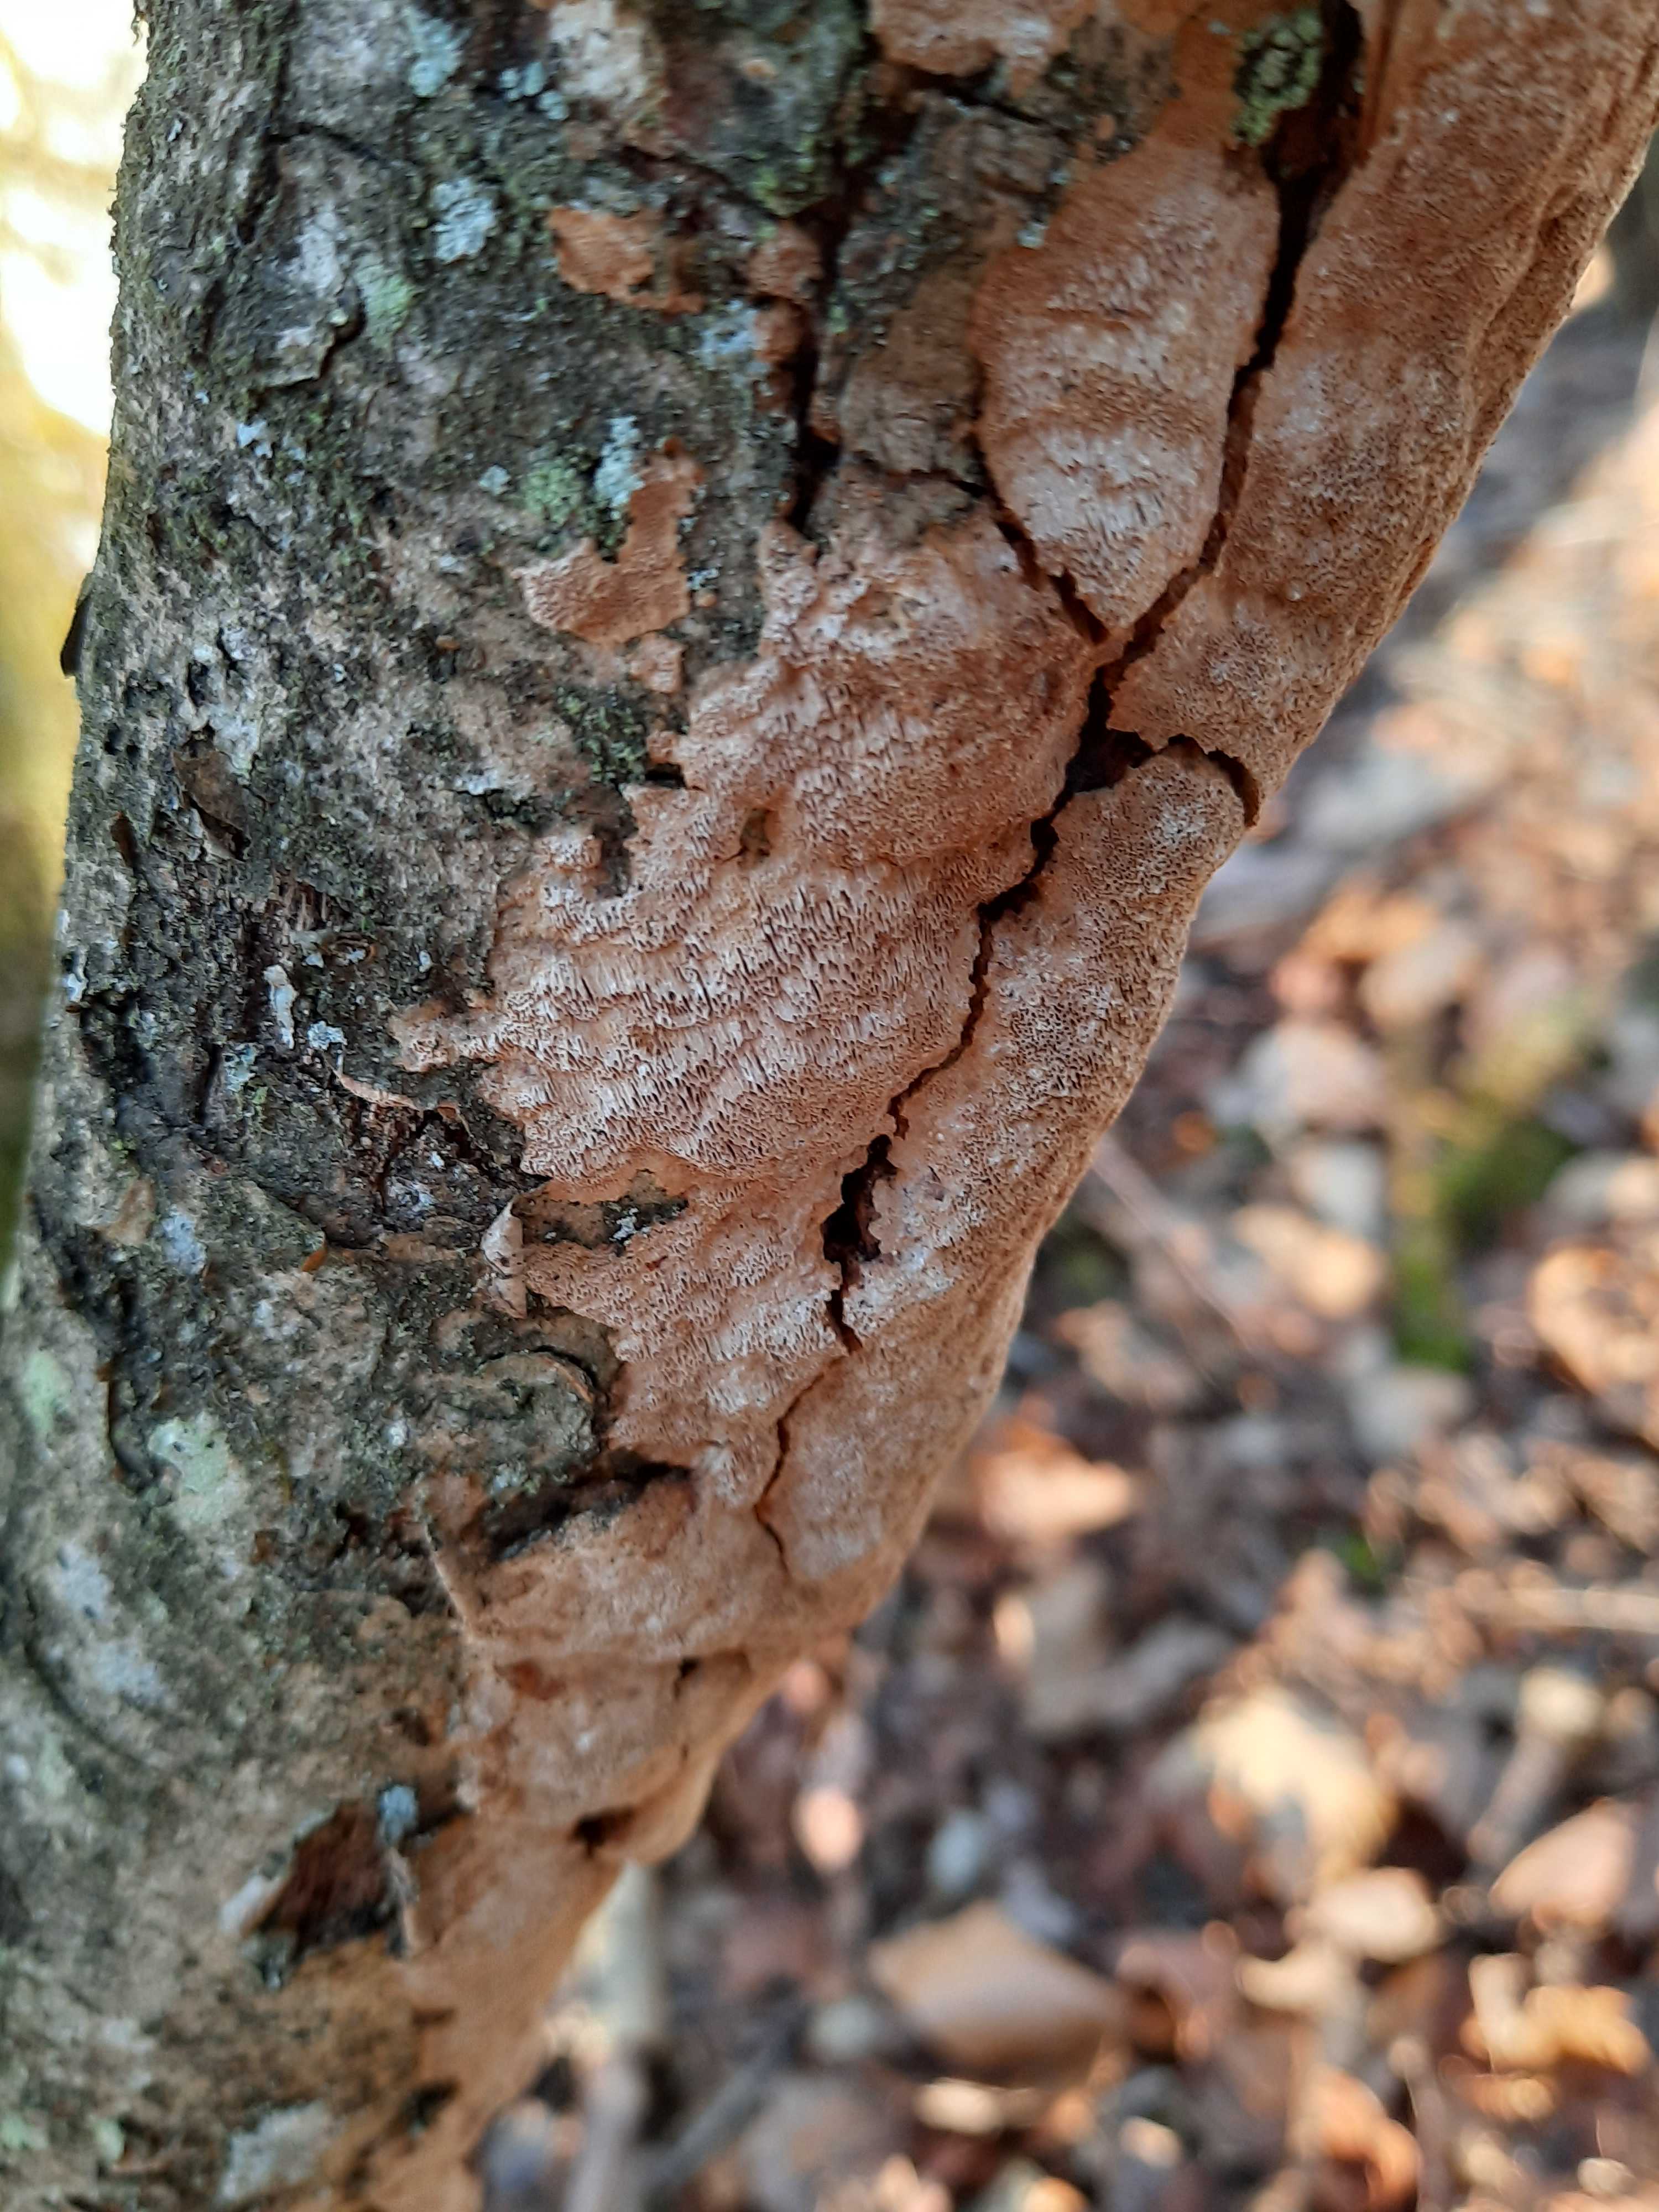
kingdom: Fungi
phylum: Basidiomycota
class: Agaricomycetes
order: Hymenochaetales
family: Hymenochaetaceae
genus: Fuscoporia
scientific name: Fuscoporia ferrea
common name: skorpe-ildporesvamp
